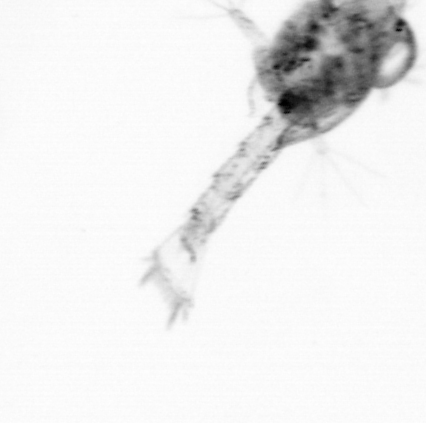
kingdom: Animalia
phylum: Arthropoda
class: Copepoda
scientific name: Copepoda
